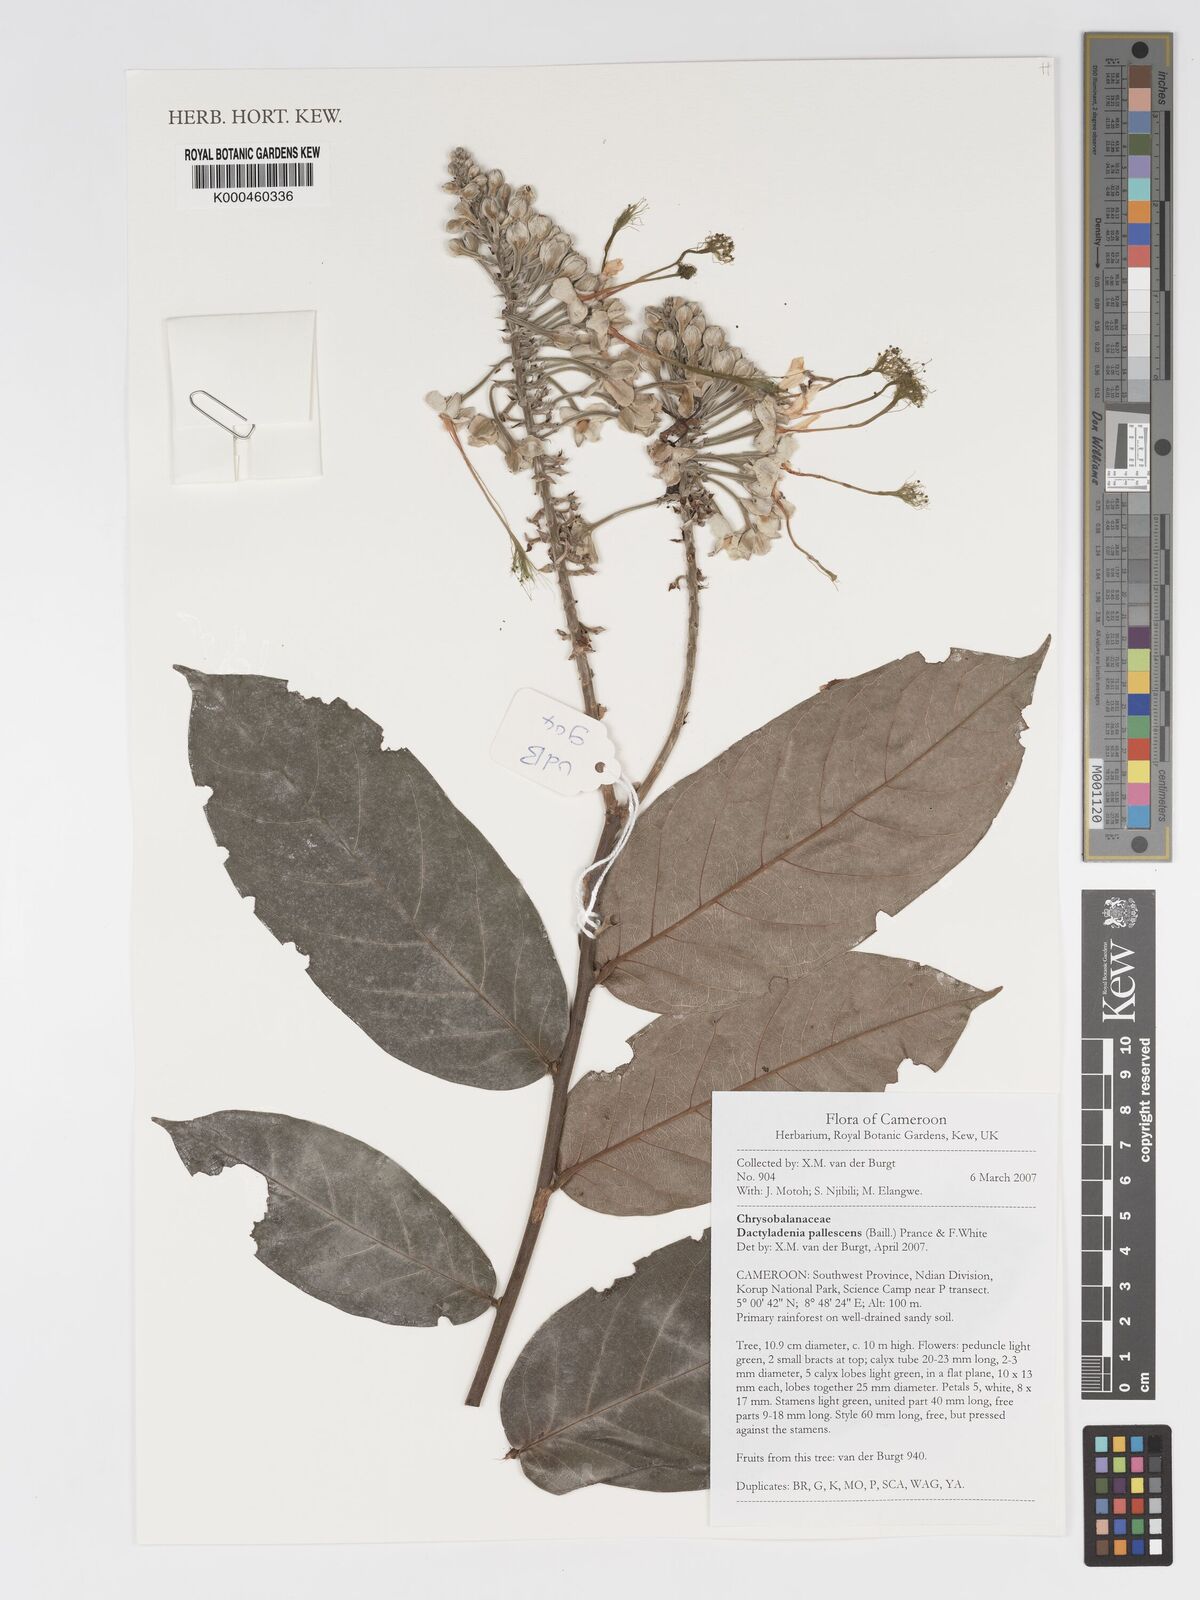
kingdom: Plantae
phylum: Tracheophyta
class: Magnoliopsida
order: Malpighiales
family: Chrysobalanaceae
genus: Dactyladenia
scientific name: Dactyladenia pallescens
